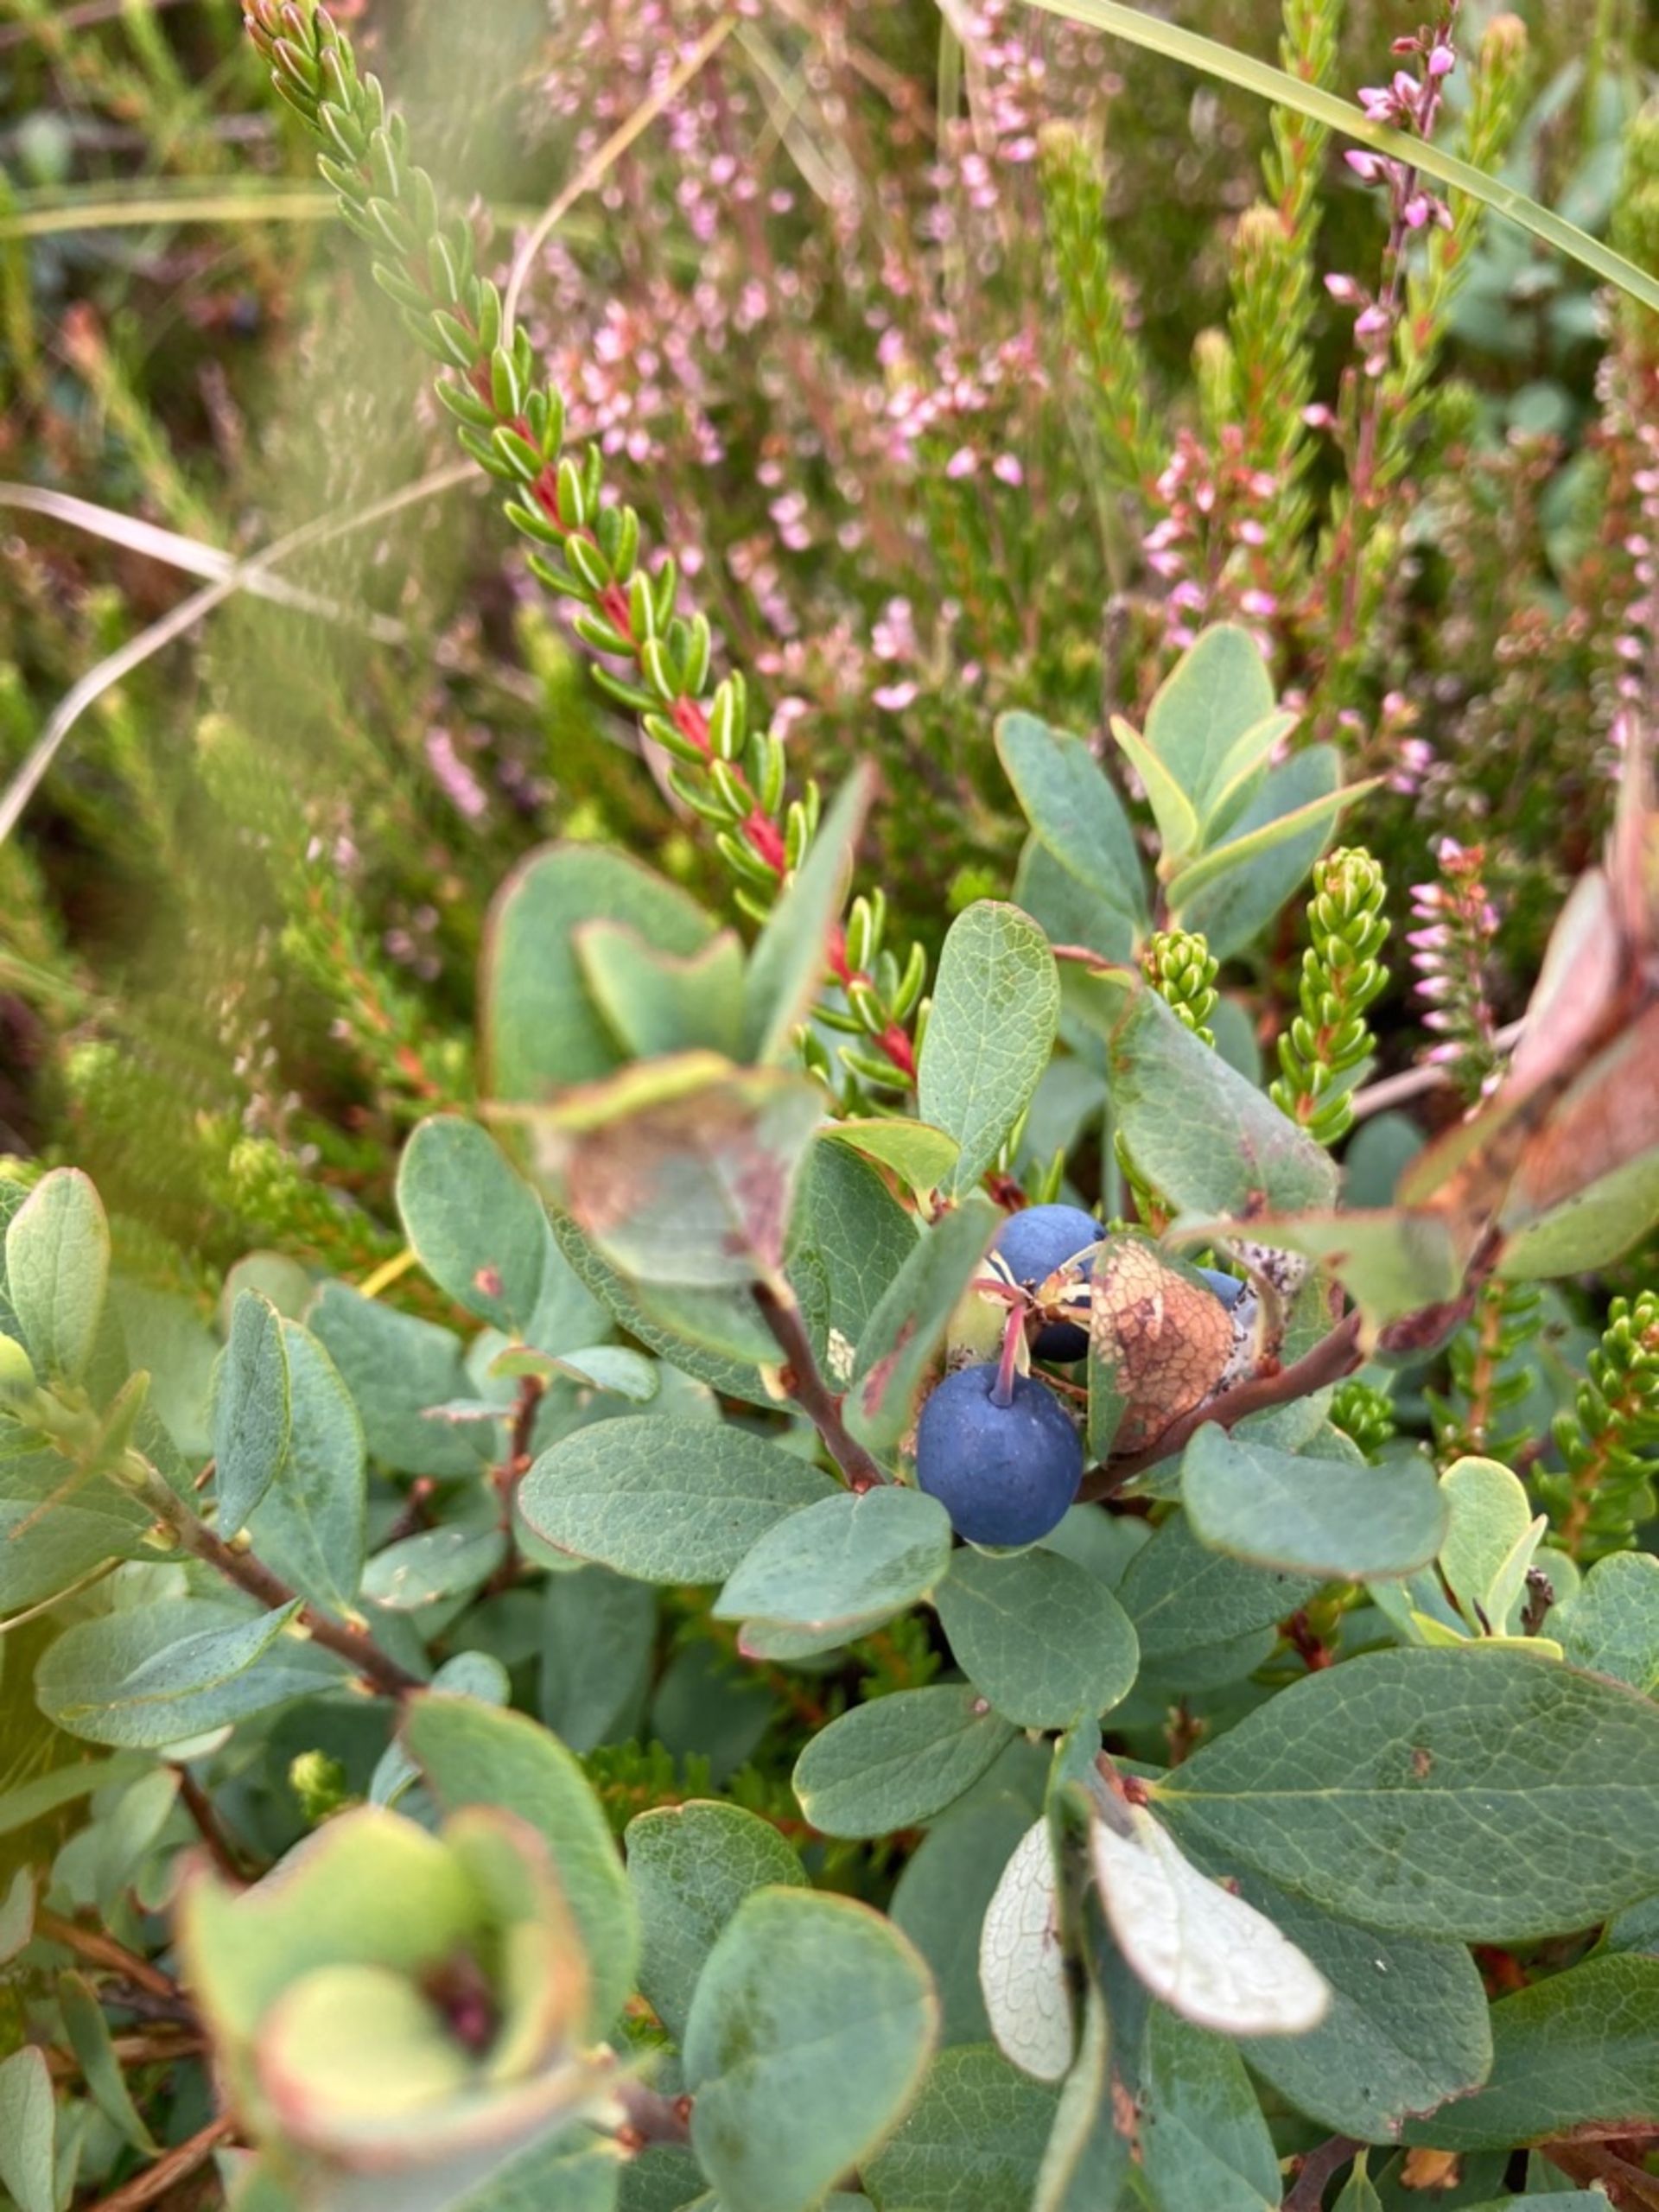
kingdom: Plantae
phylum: Tracheophyta
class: Magnoliopsida
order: Ericales
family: Ericaceae
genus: Vaccinium
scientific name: Vaccinium uliginosum
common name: Mose-bølle
